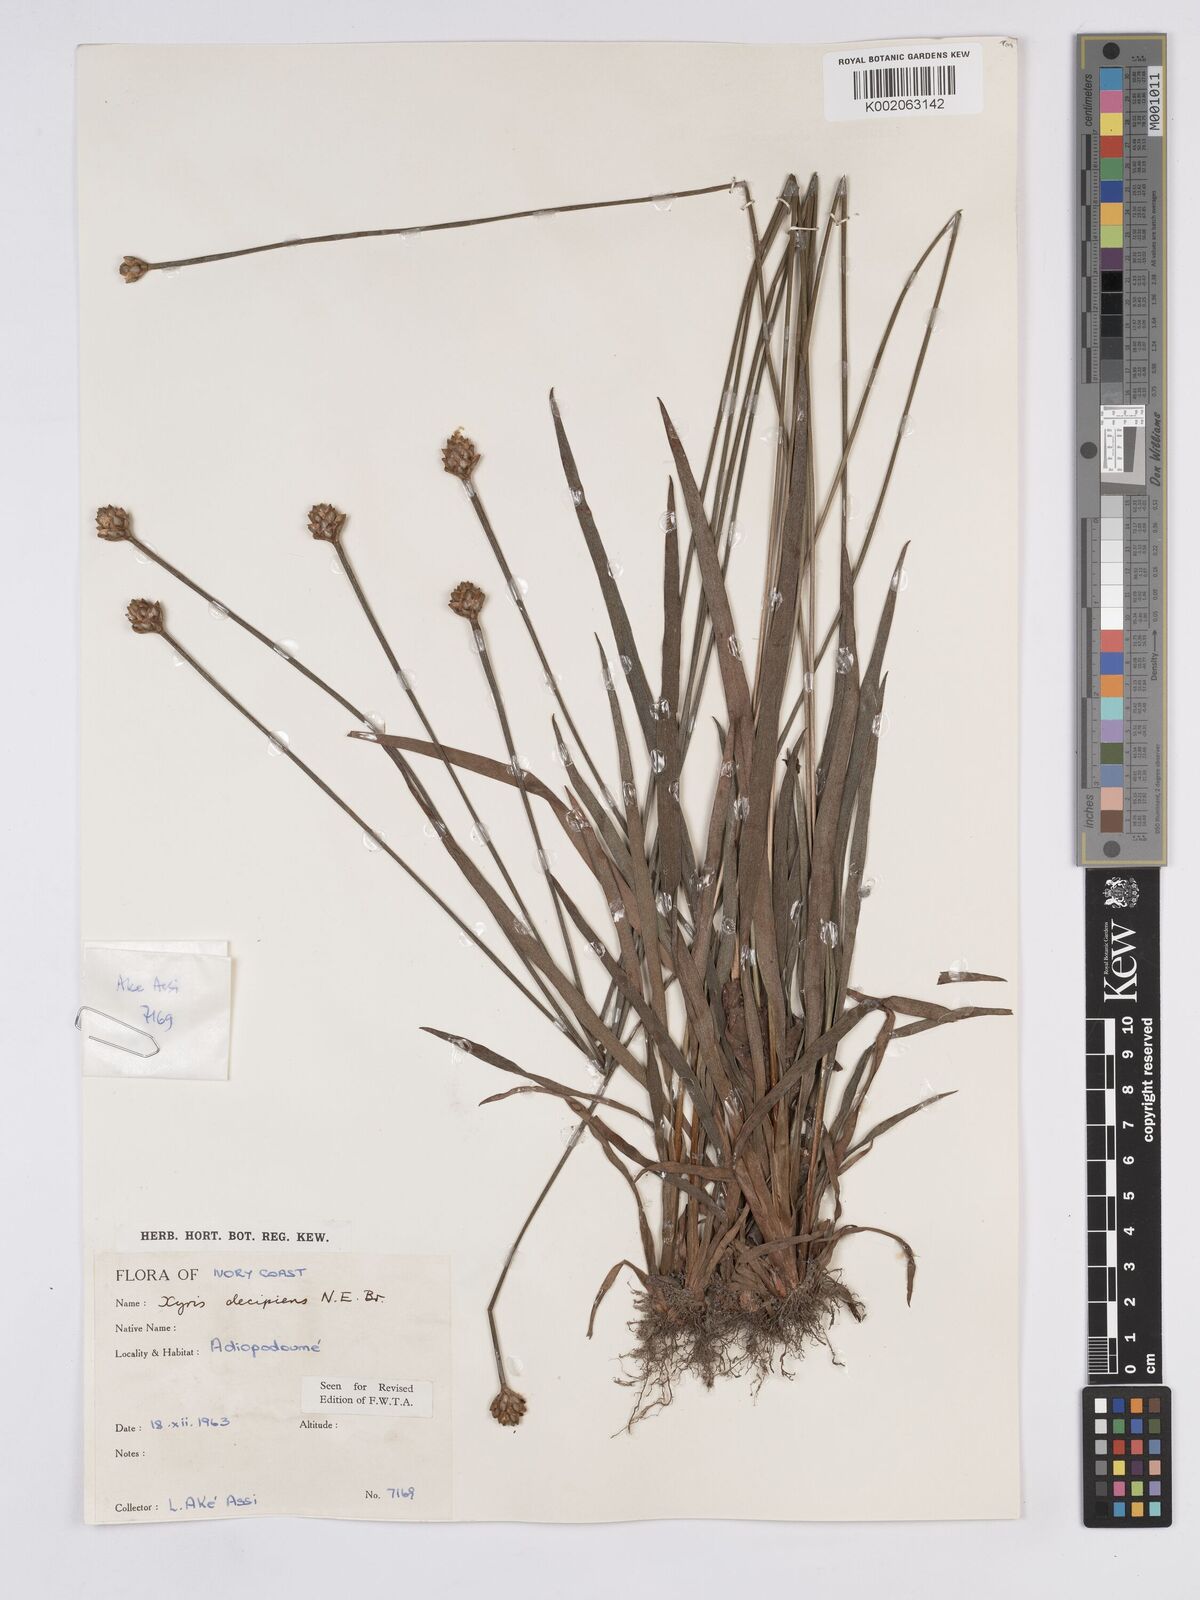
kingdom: Plantae
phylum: Tracheophyta
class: Liliopsida
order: Poales
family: Xyridaceae
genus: Xyris
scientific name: Xyris decipiens
